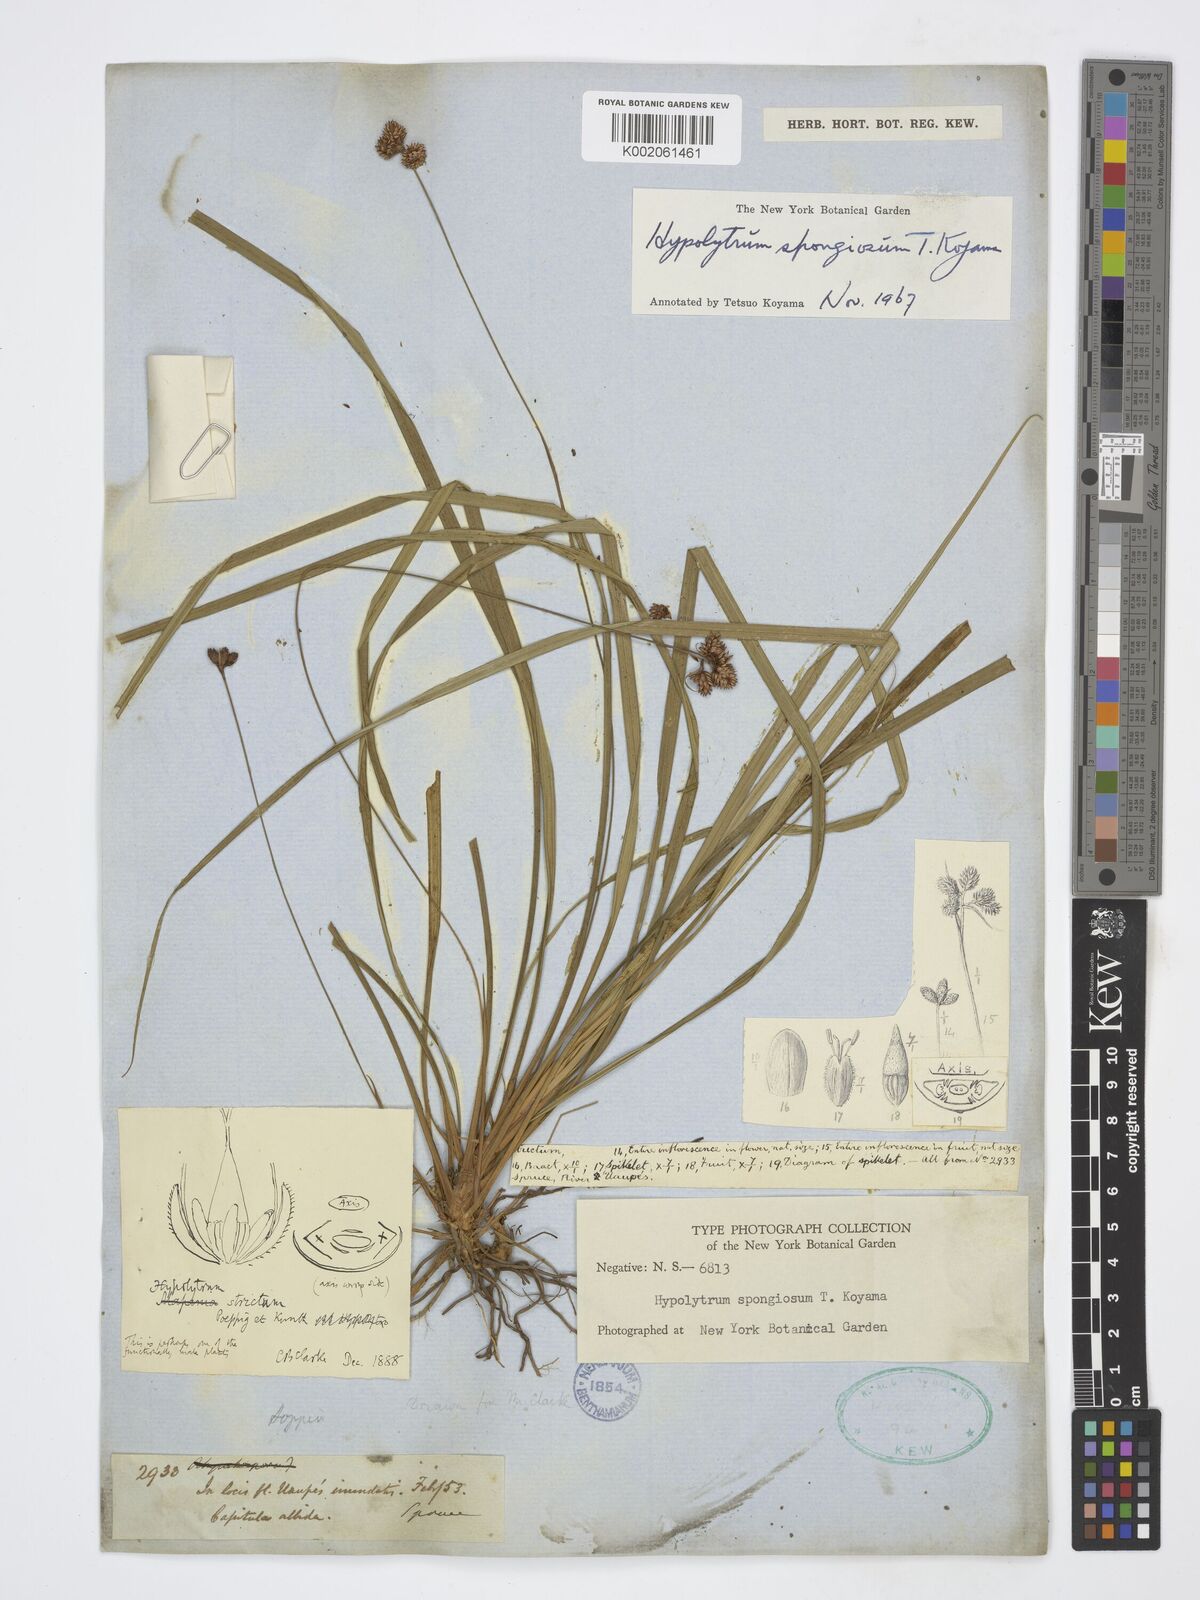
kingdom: Plantae
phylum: Tracheophyta
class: Liliopsida
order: Poales
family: Cyperaceae
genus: Hypolytrum
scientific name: Hypolytrum spongiosum
